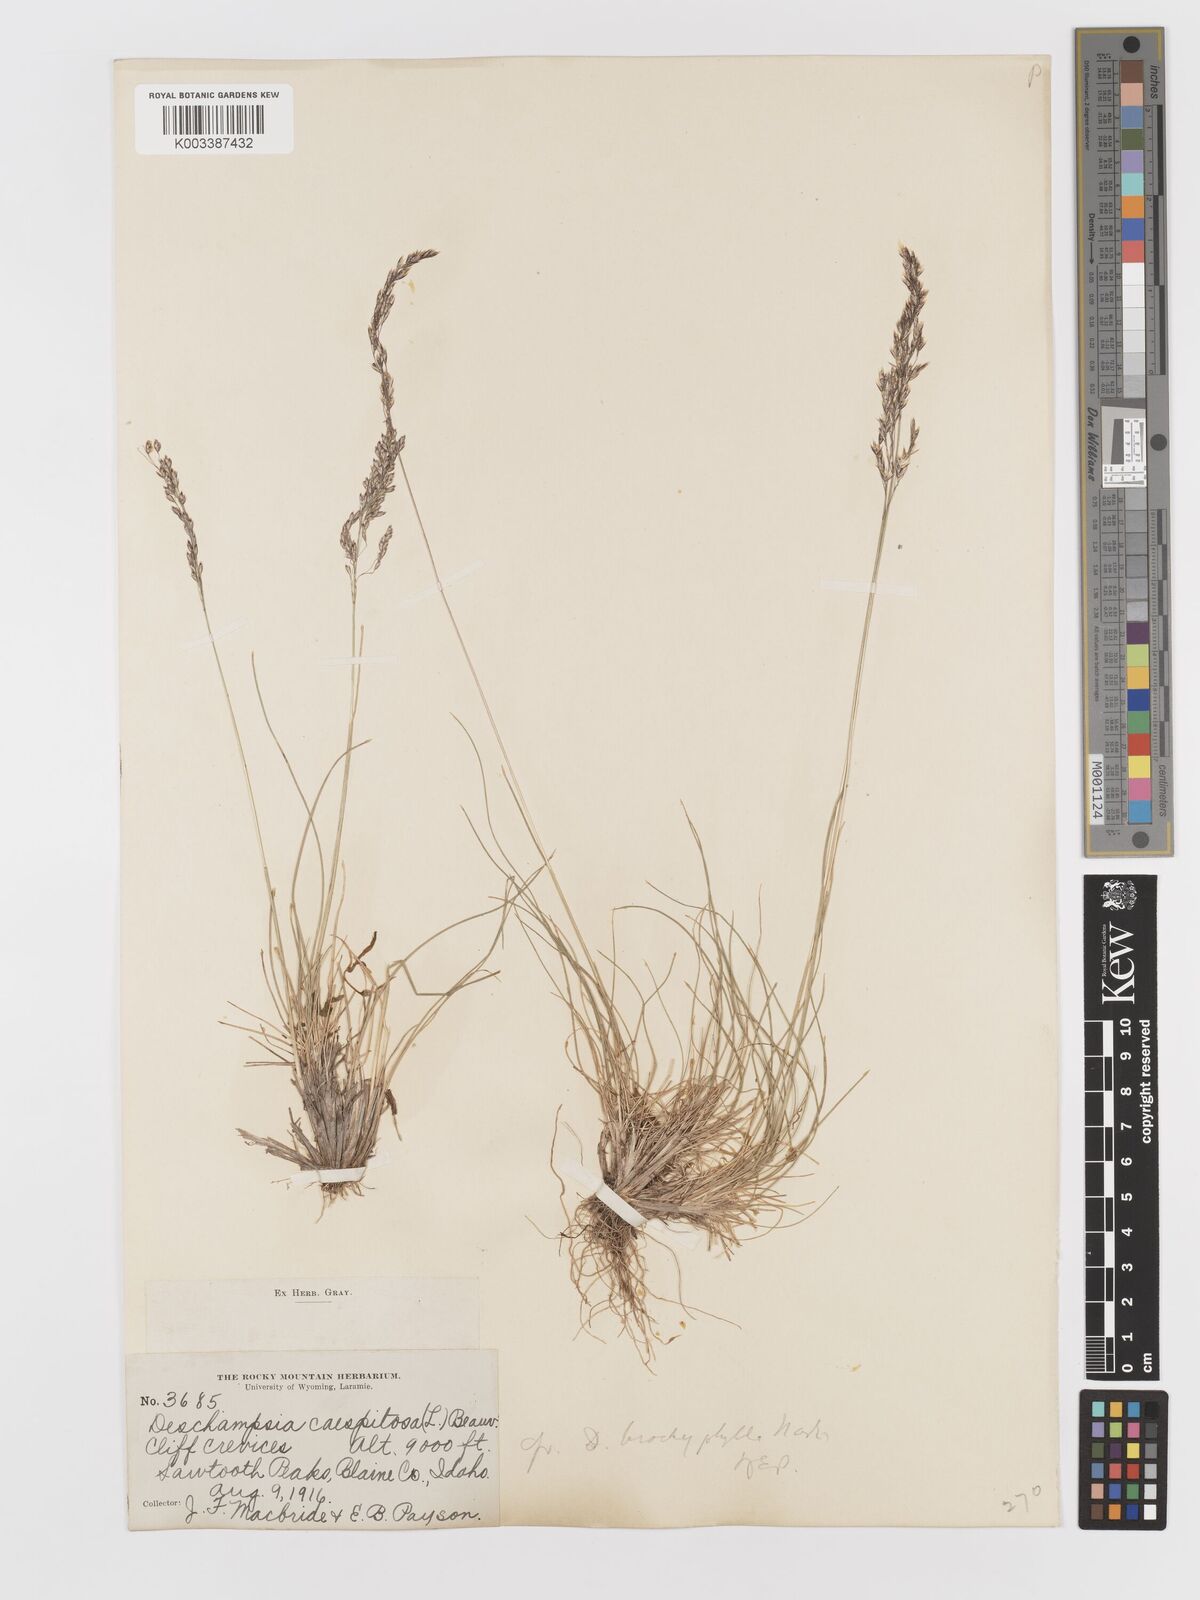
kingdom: Plantae
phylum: Tracheophyta
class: Liliopsida
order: Poales
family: Poaceae
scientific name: Poaceae
